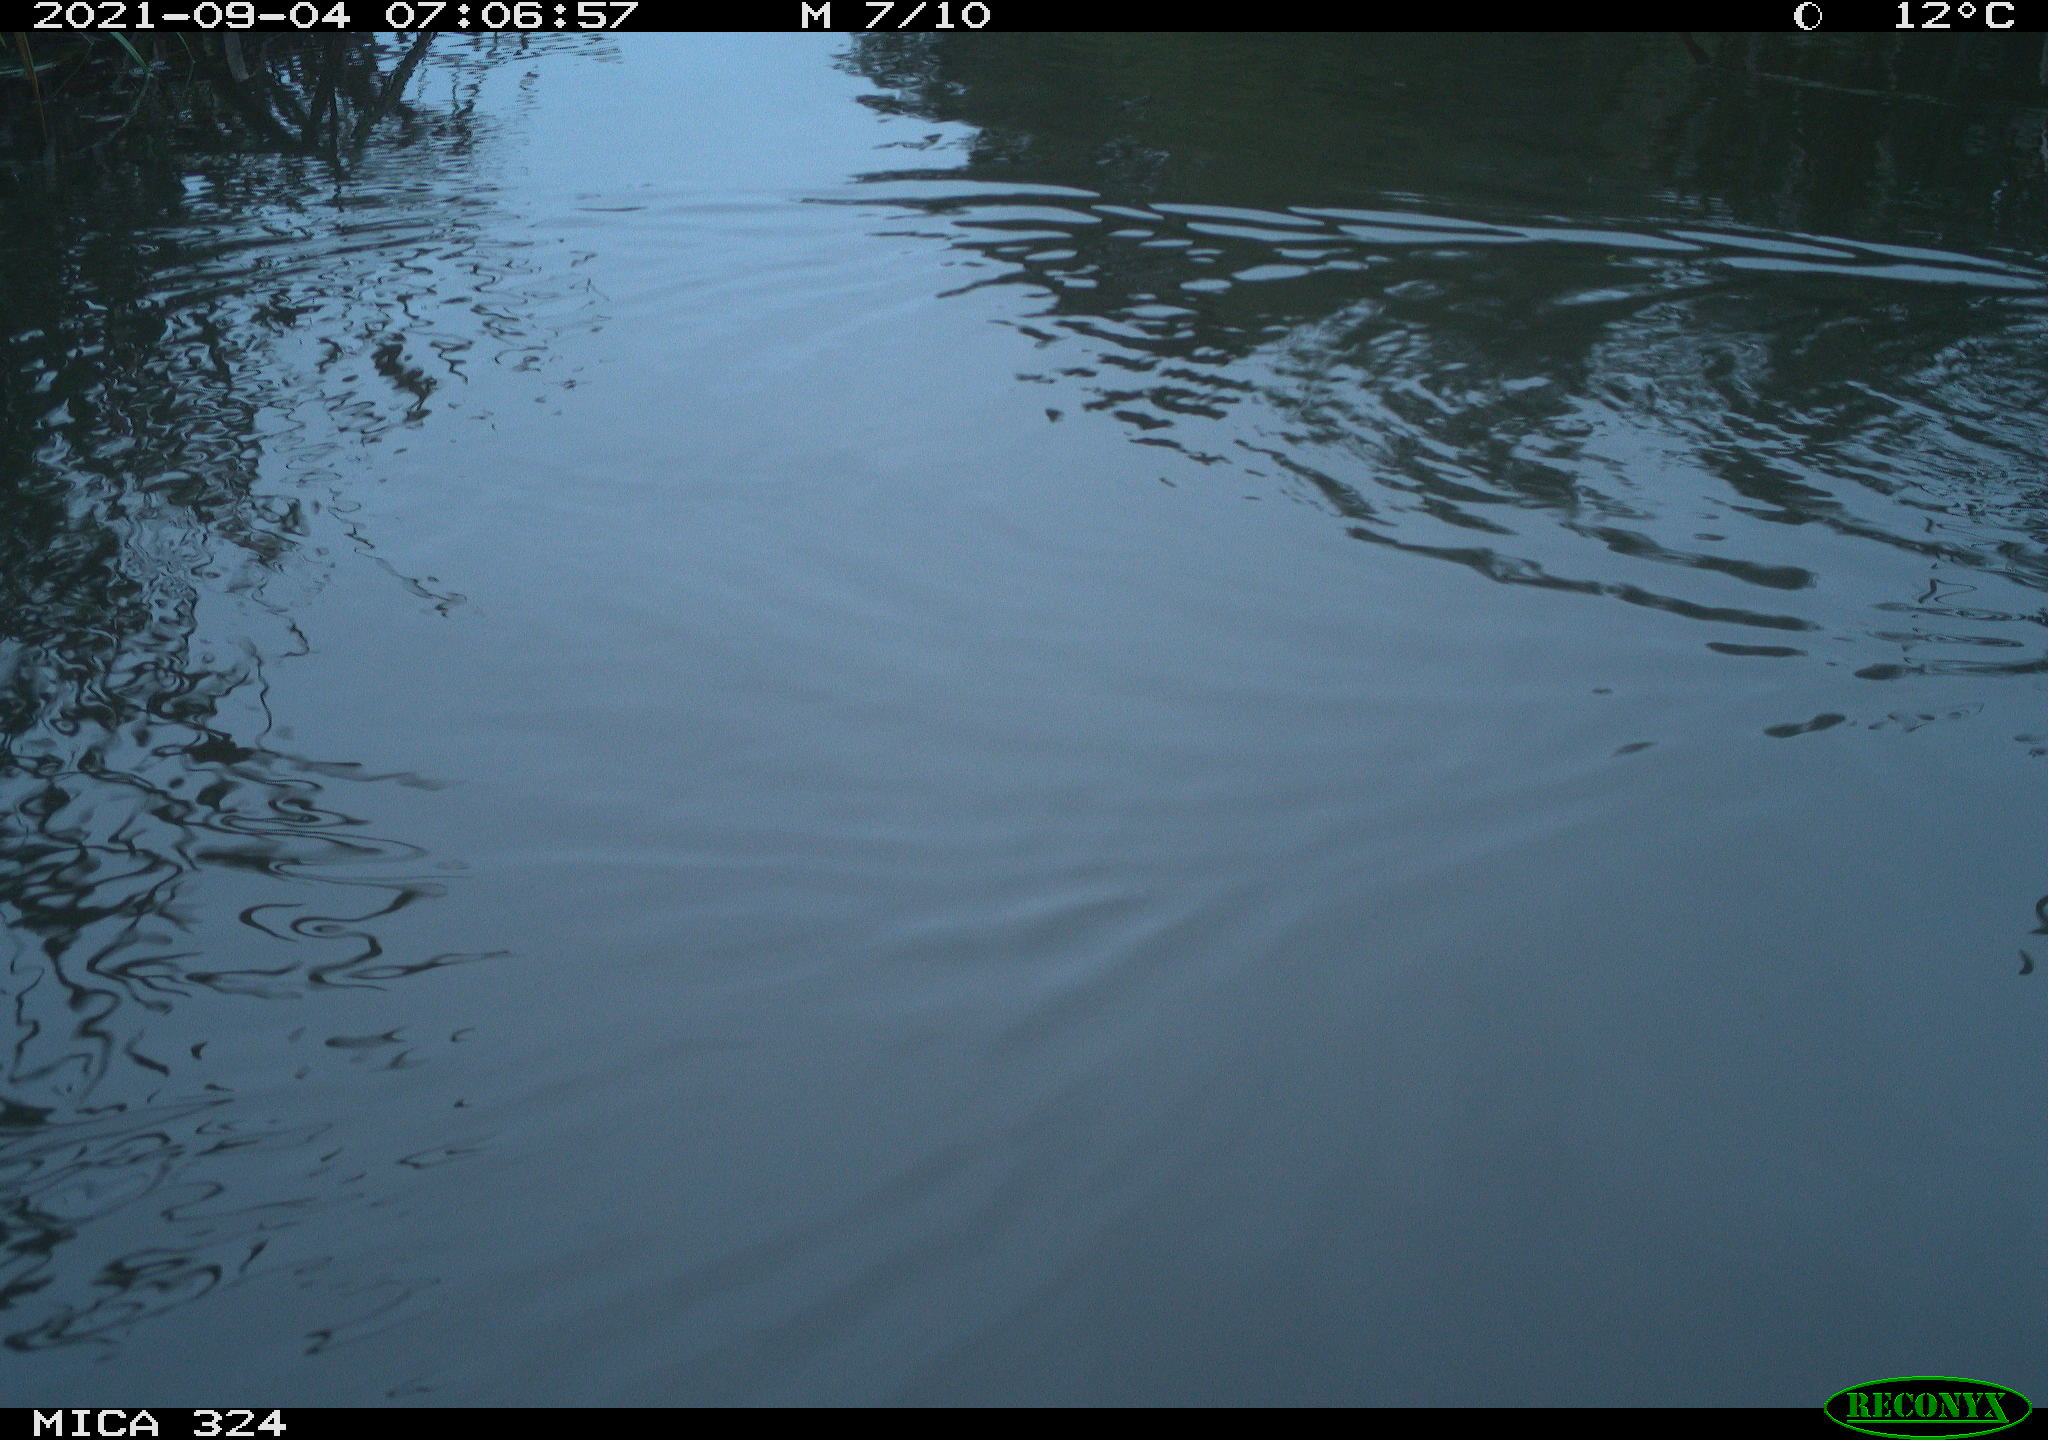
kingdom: Animalia
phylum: Chordata
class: Mammalia
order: Rodentia
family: Cricetidae
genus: Ondatra
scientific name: Ondatra zibethicus
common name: Muskrat
